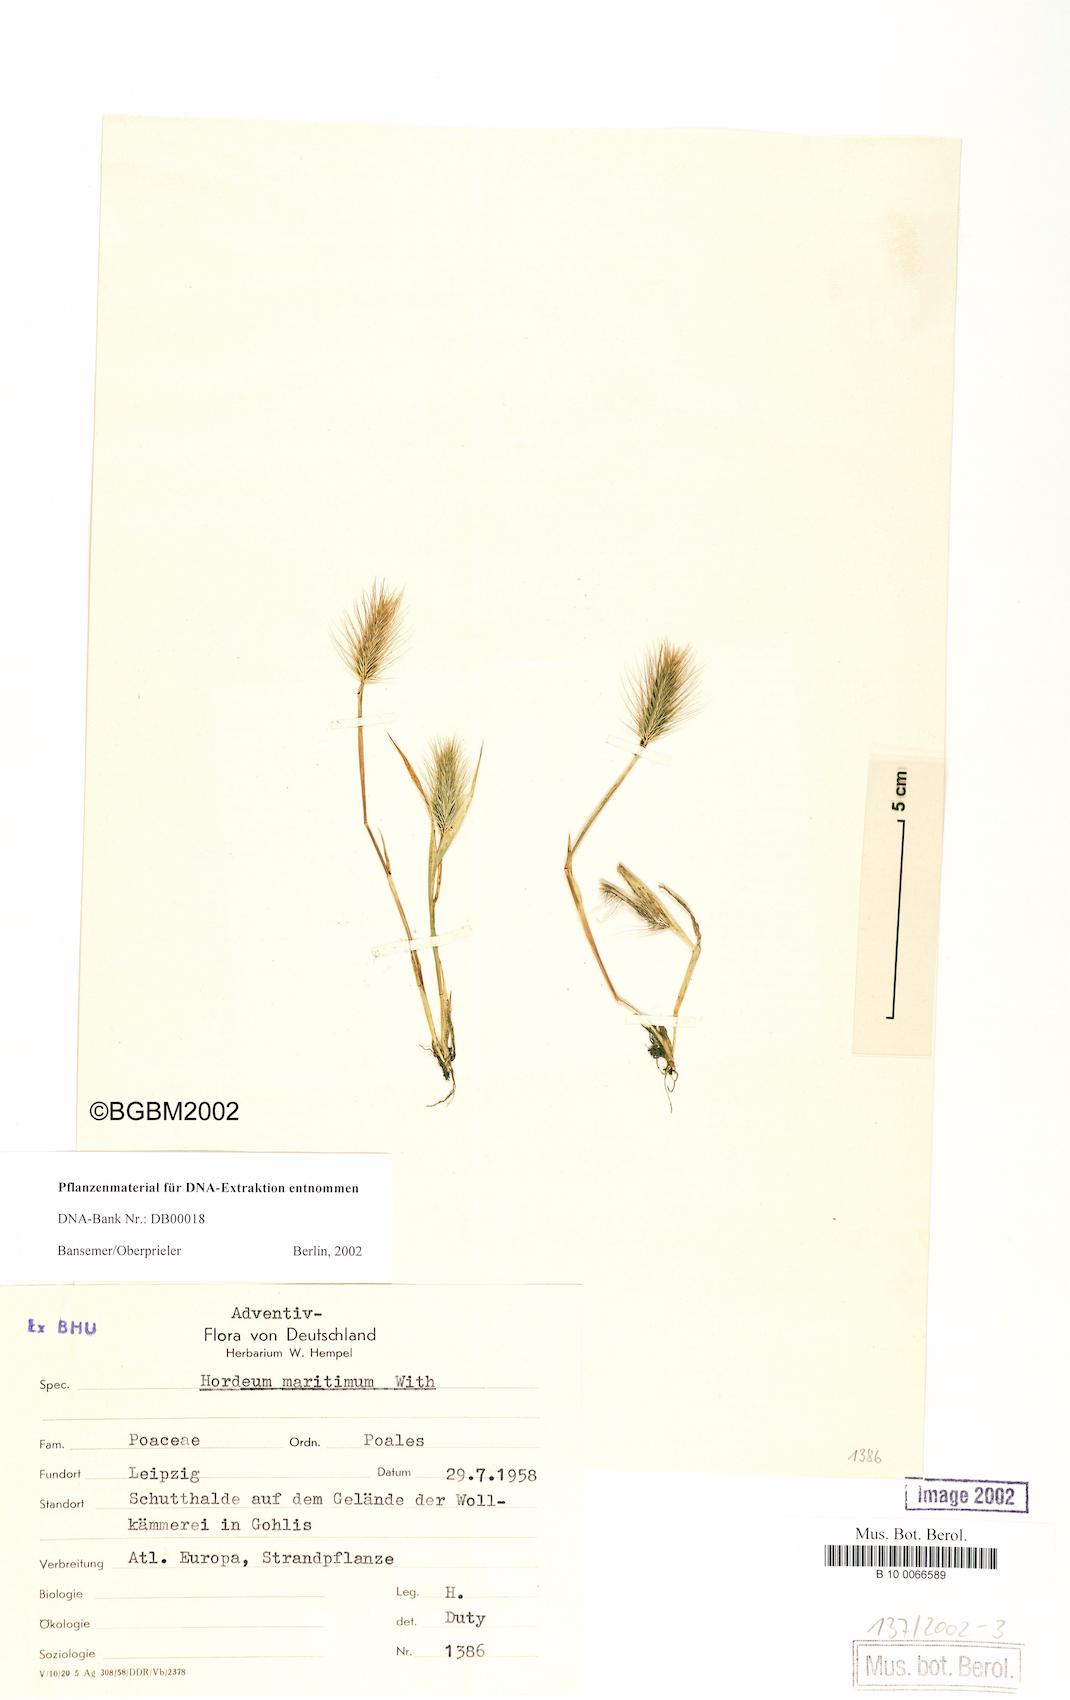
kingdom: Plantae
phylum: Tracheophyta
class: Liliopsida
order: Poales
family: Poaceae
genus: Hordeum
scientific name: Hordeum marinum
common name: Sea barley
